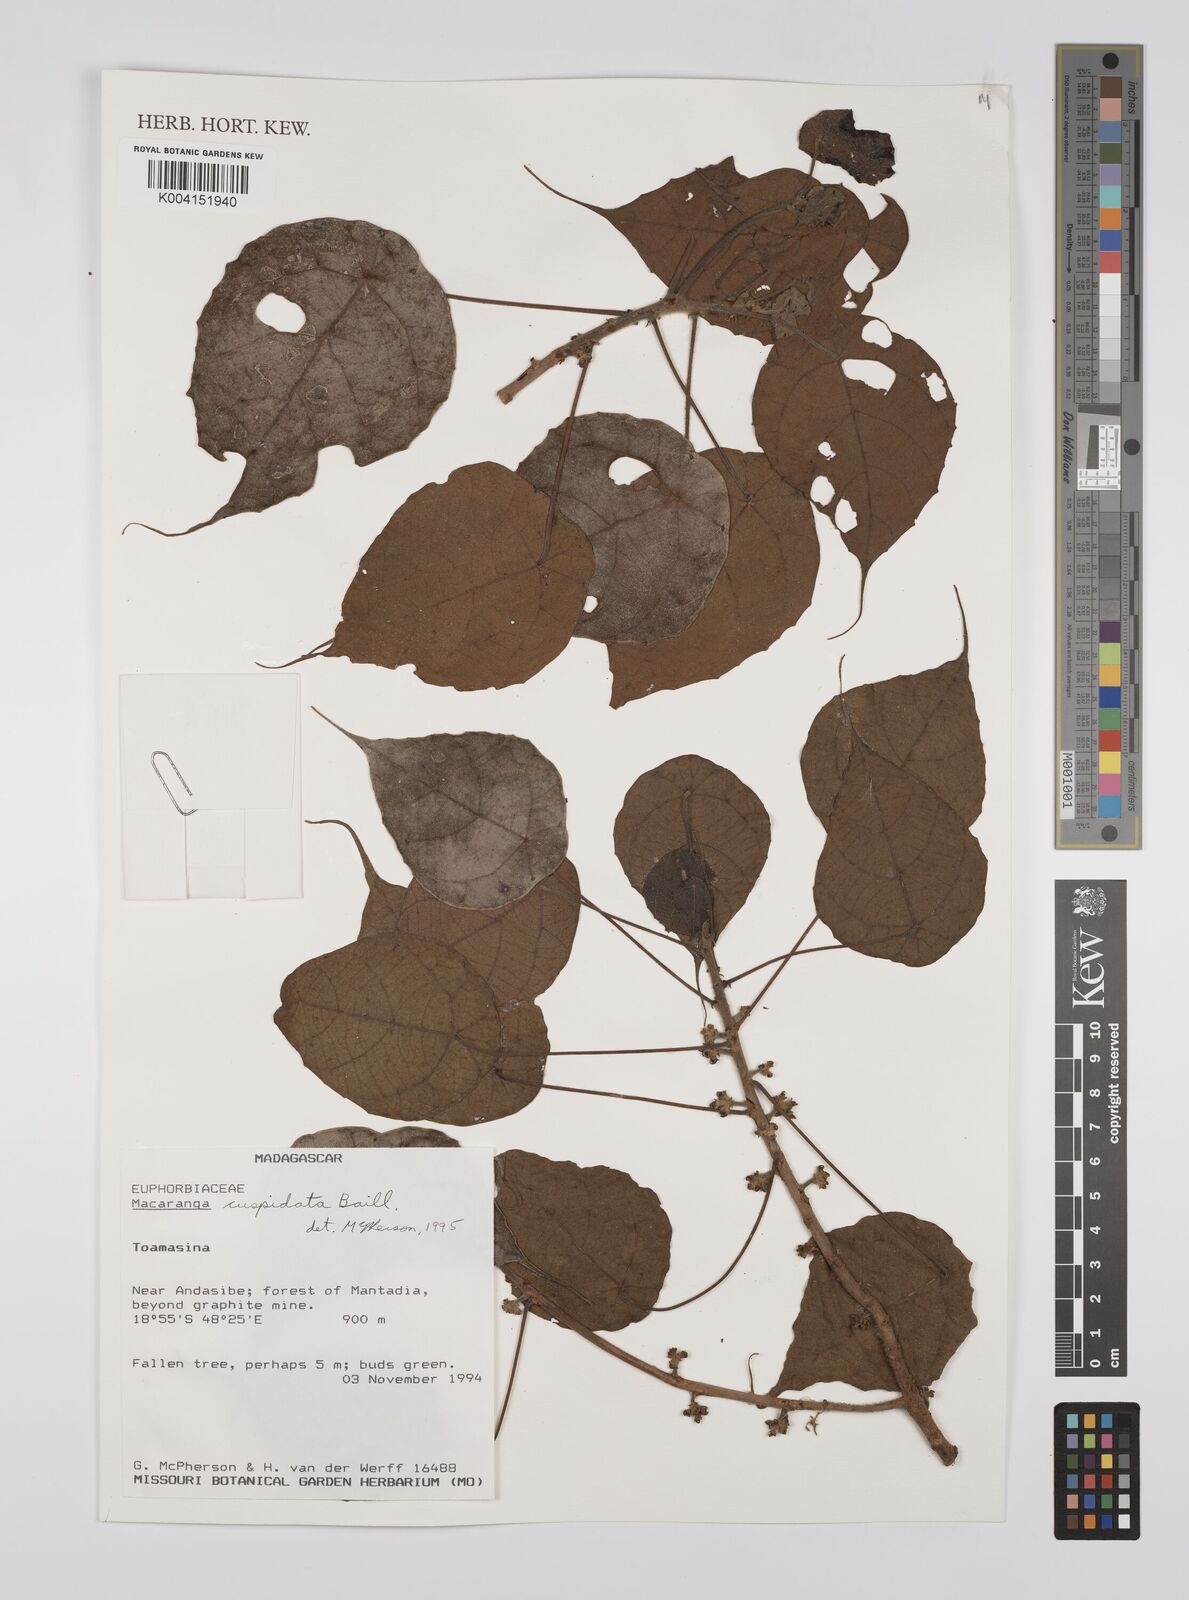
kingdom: Plantae
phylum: Tracheophyta
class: Magnoliopsida
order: Malpighiales
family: Euphorbiaceae
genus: Macaranga
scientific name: Macaranga cuspidata
